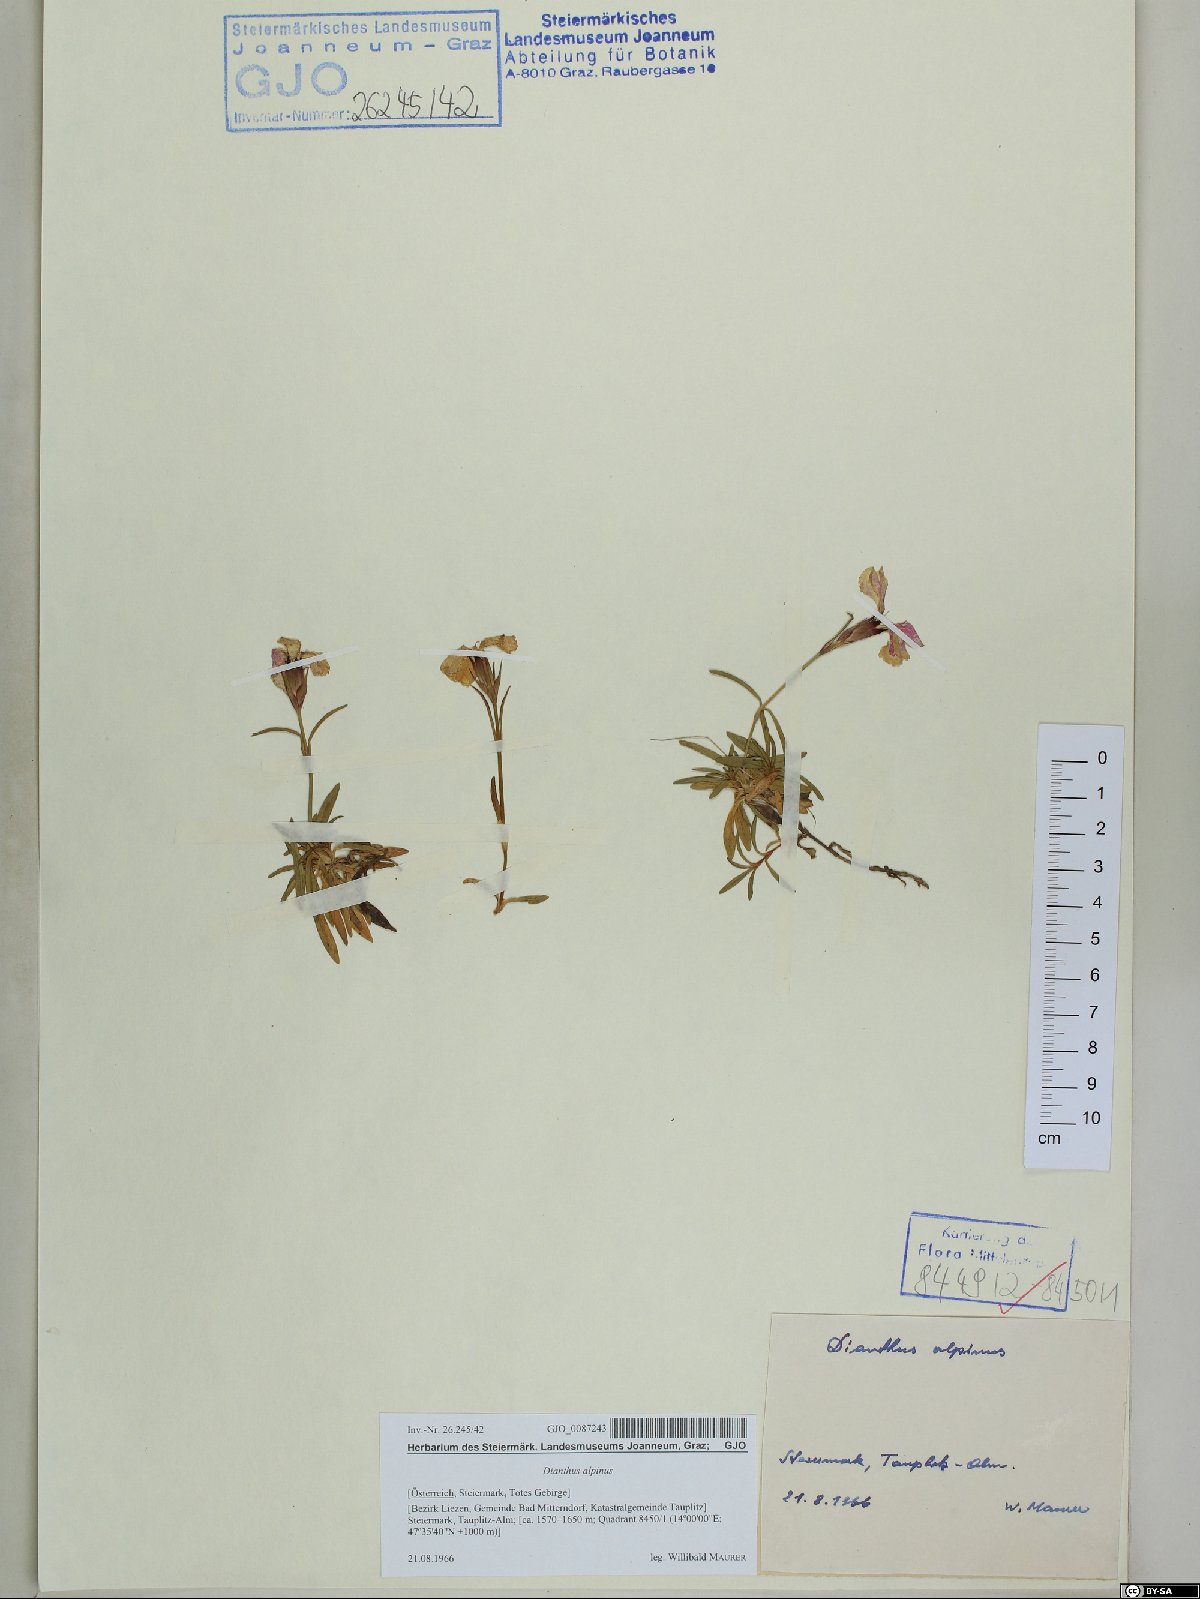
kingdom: Plantae
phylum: Tracheophyta
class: Magnoliopsida
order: Caryophyllales
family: Caryophyllaceae
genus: Dianthus
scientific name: Dianthus alpinus
